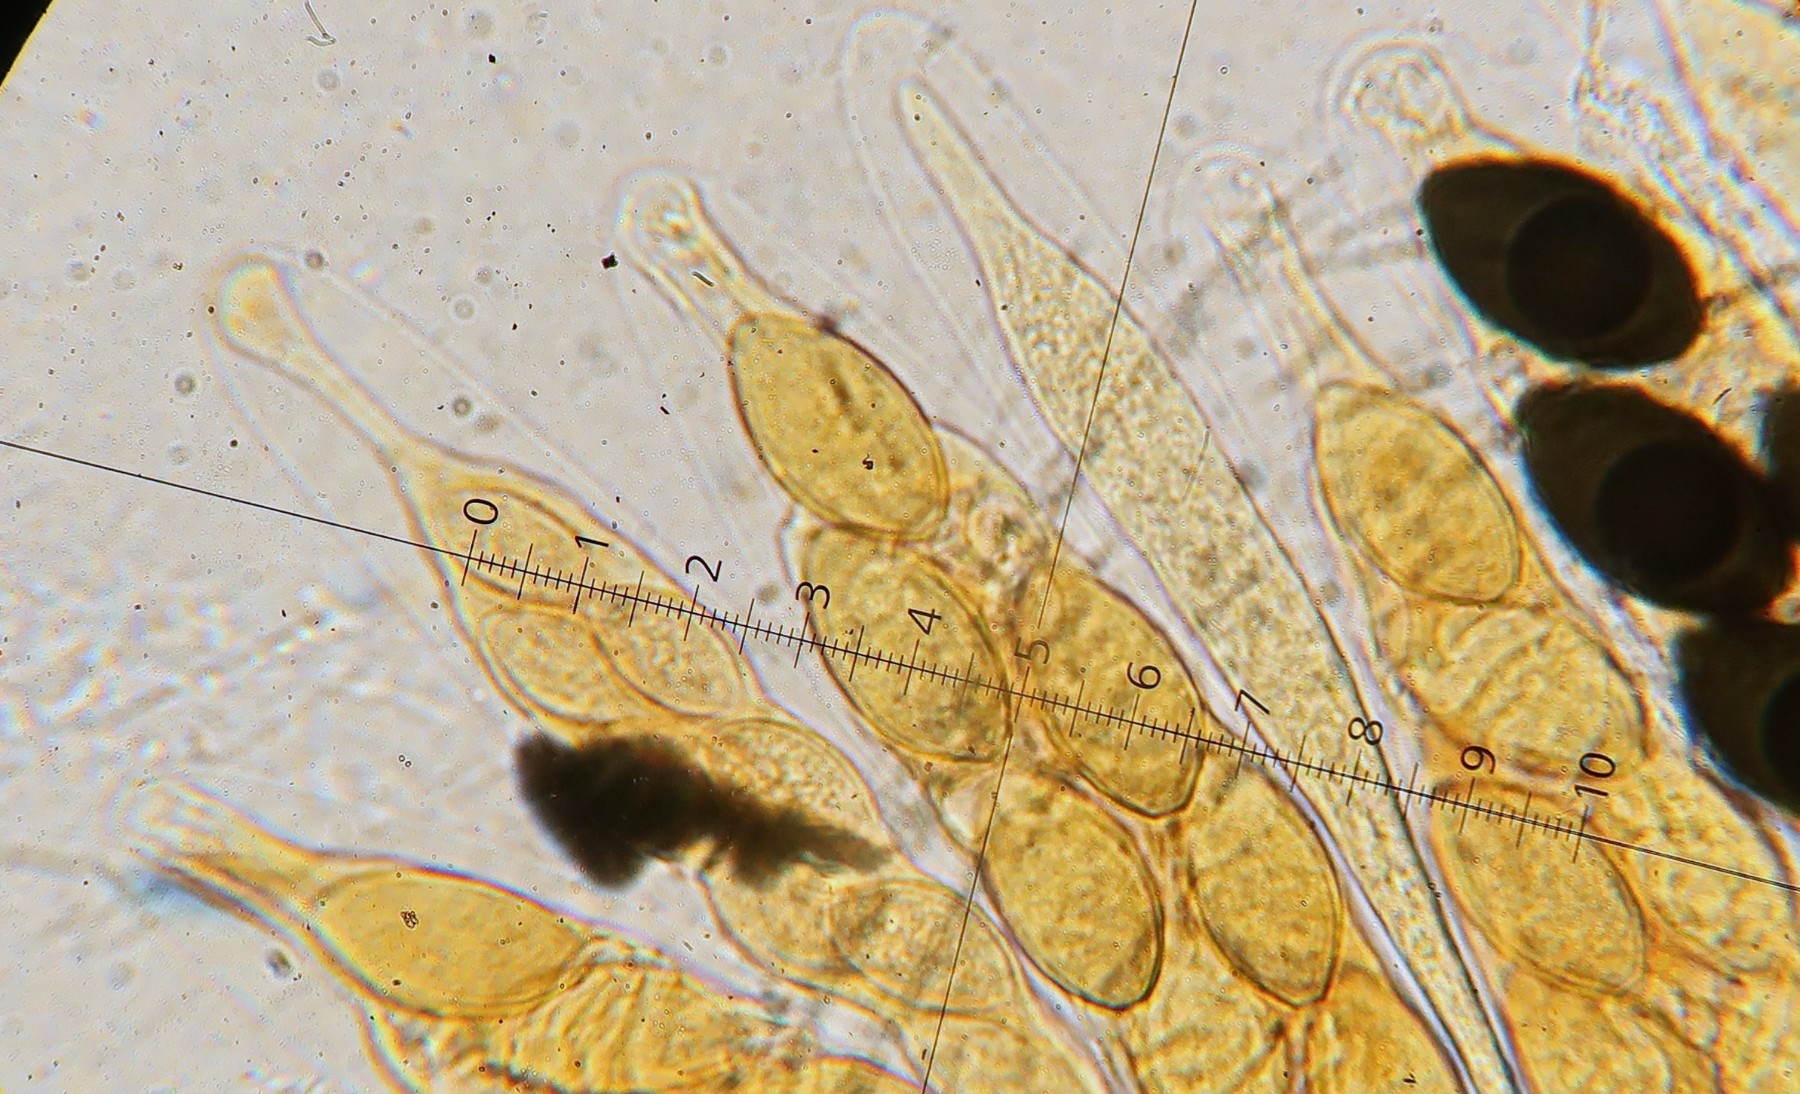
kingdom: Fungi
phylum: Ascomycota
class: Sordariomycetes
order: Sordariales
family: Podosporaceae
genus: Podospora
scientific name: Podospora
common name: kernesvamp
